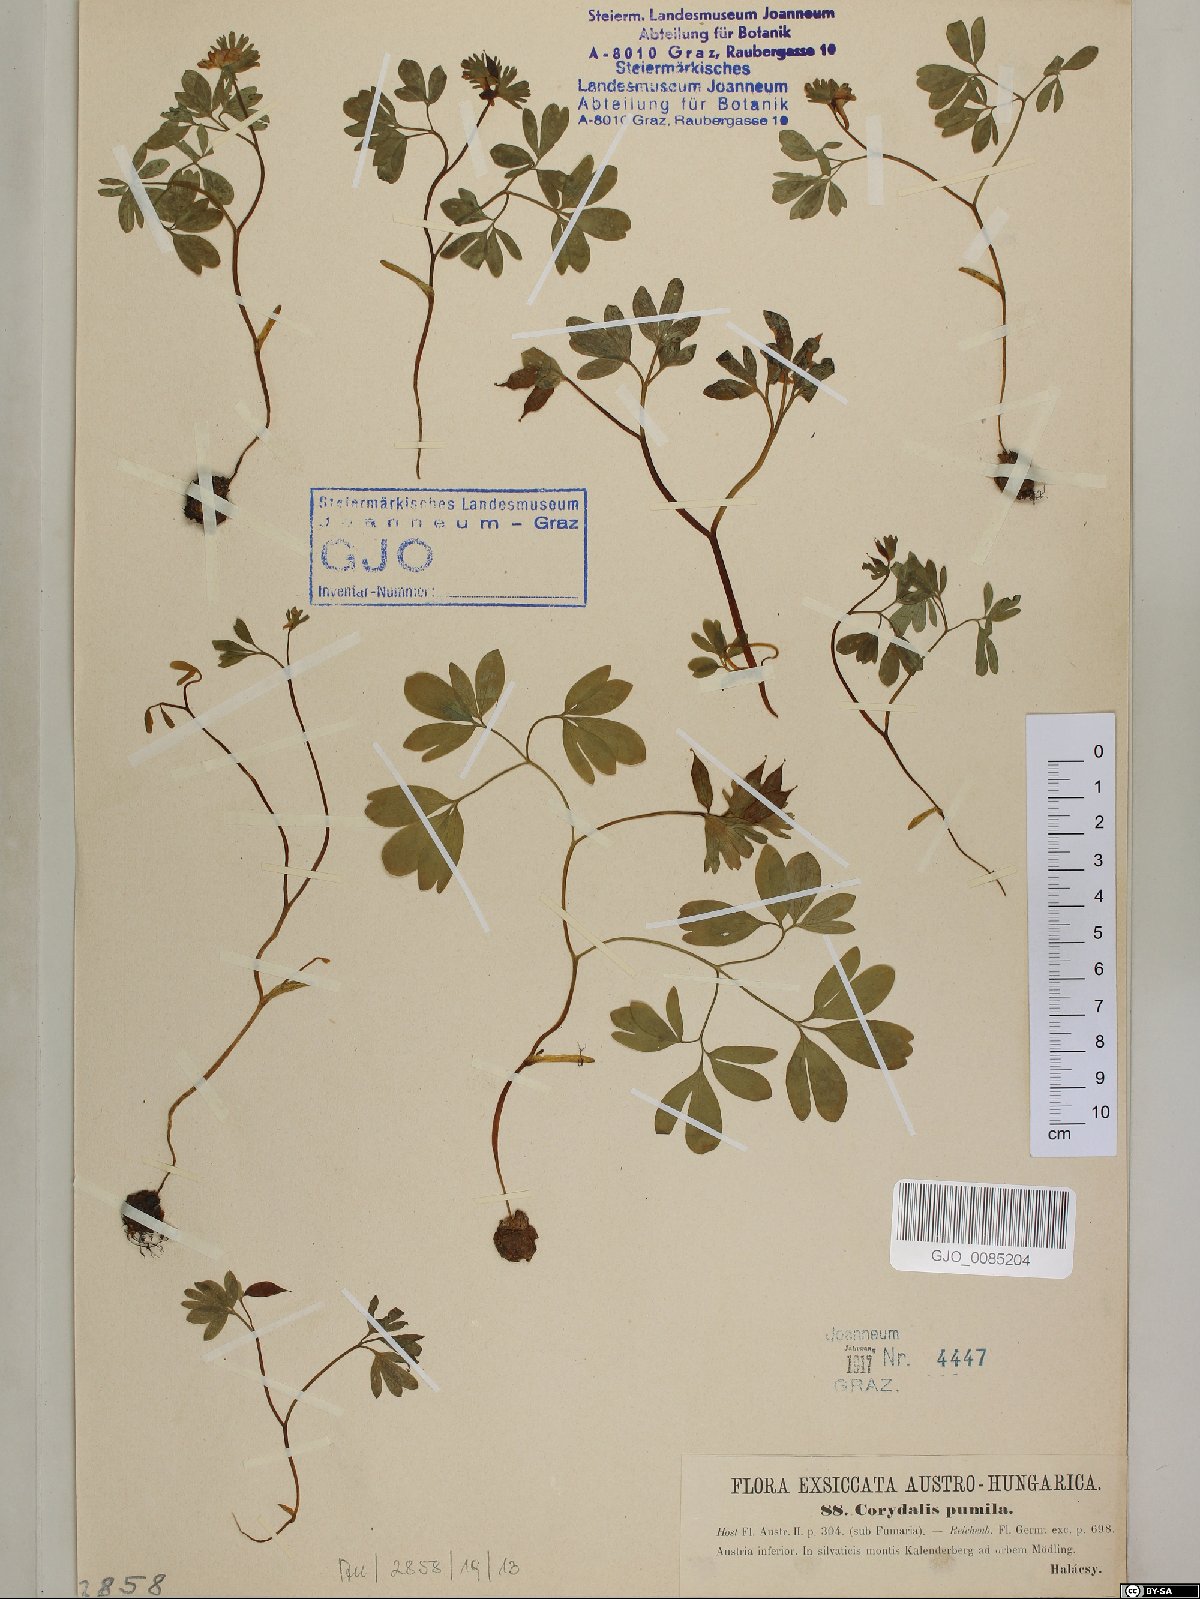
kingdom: Plantae
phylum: Tracheophyta
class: Magnoliopsida
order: Ranunculales
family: Papaveraceae
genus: Corydalis
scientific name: Corydalis pumila
